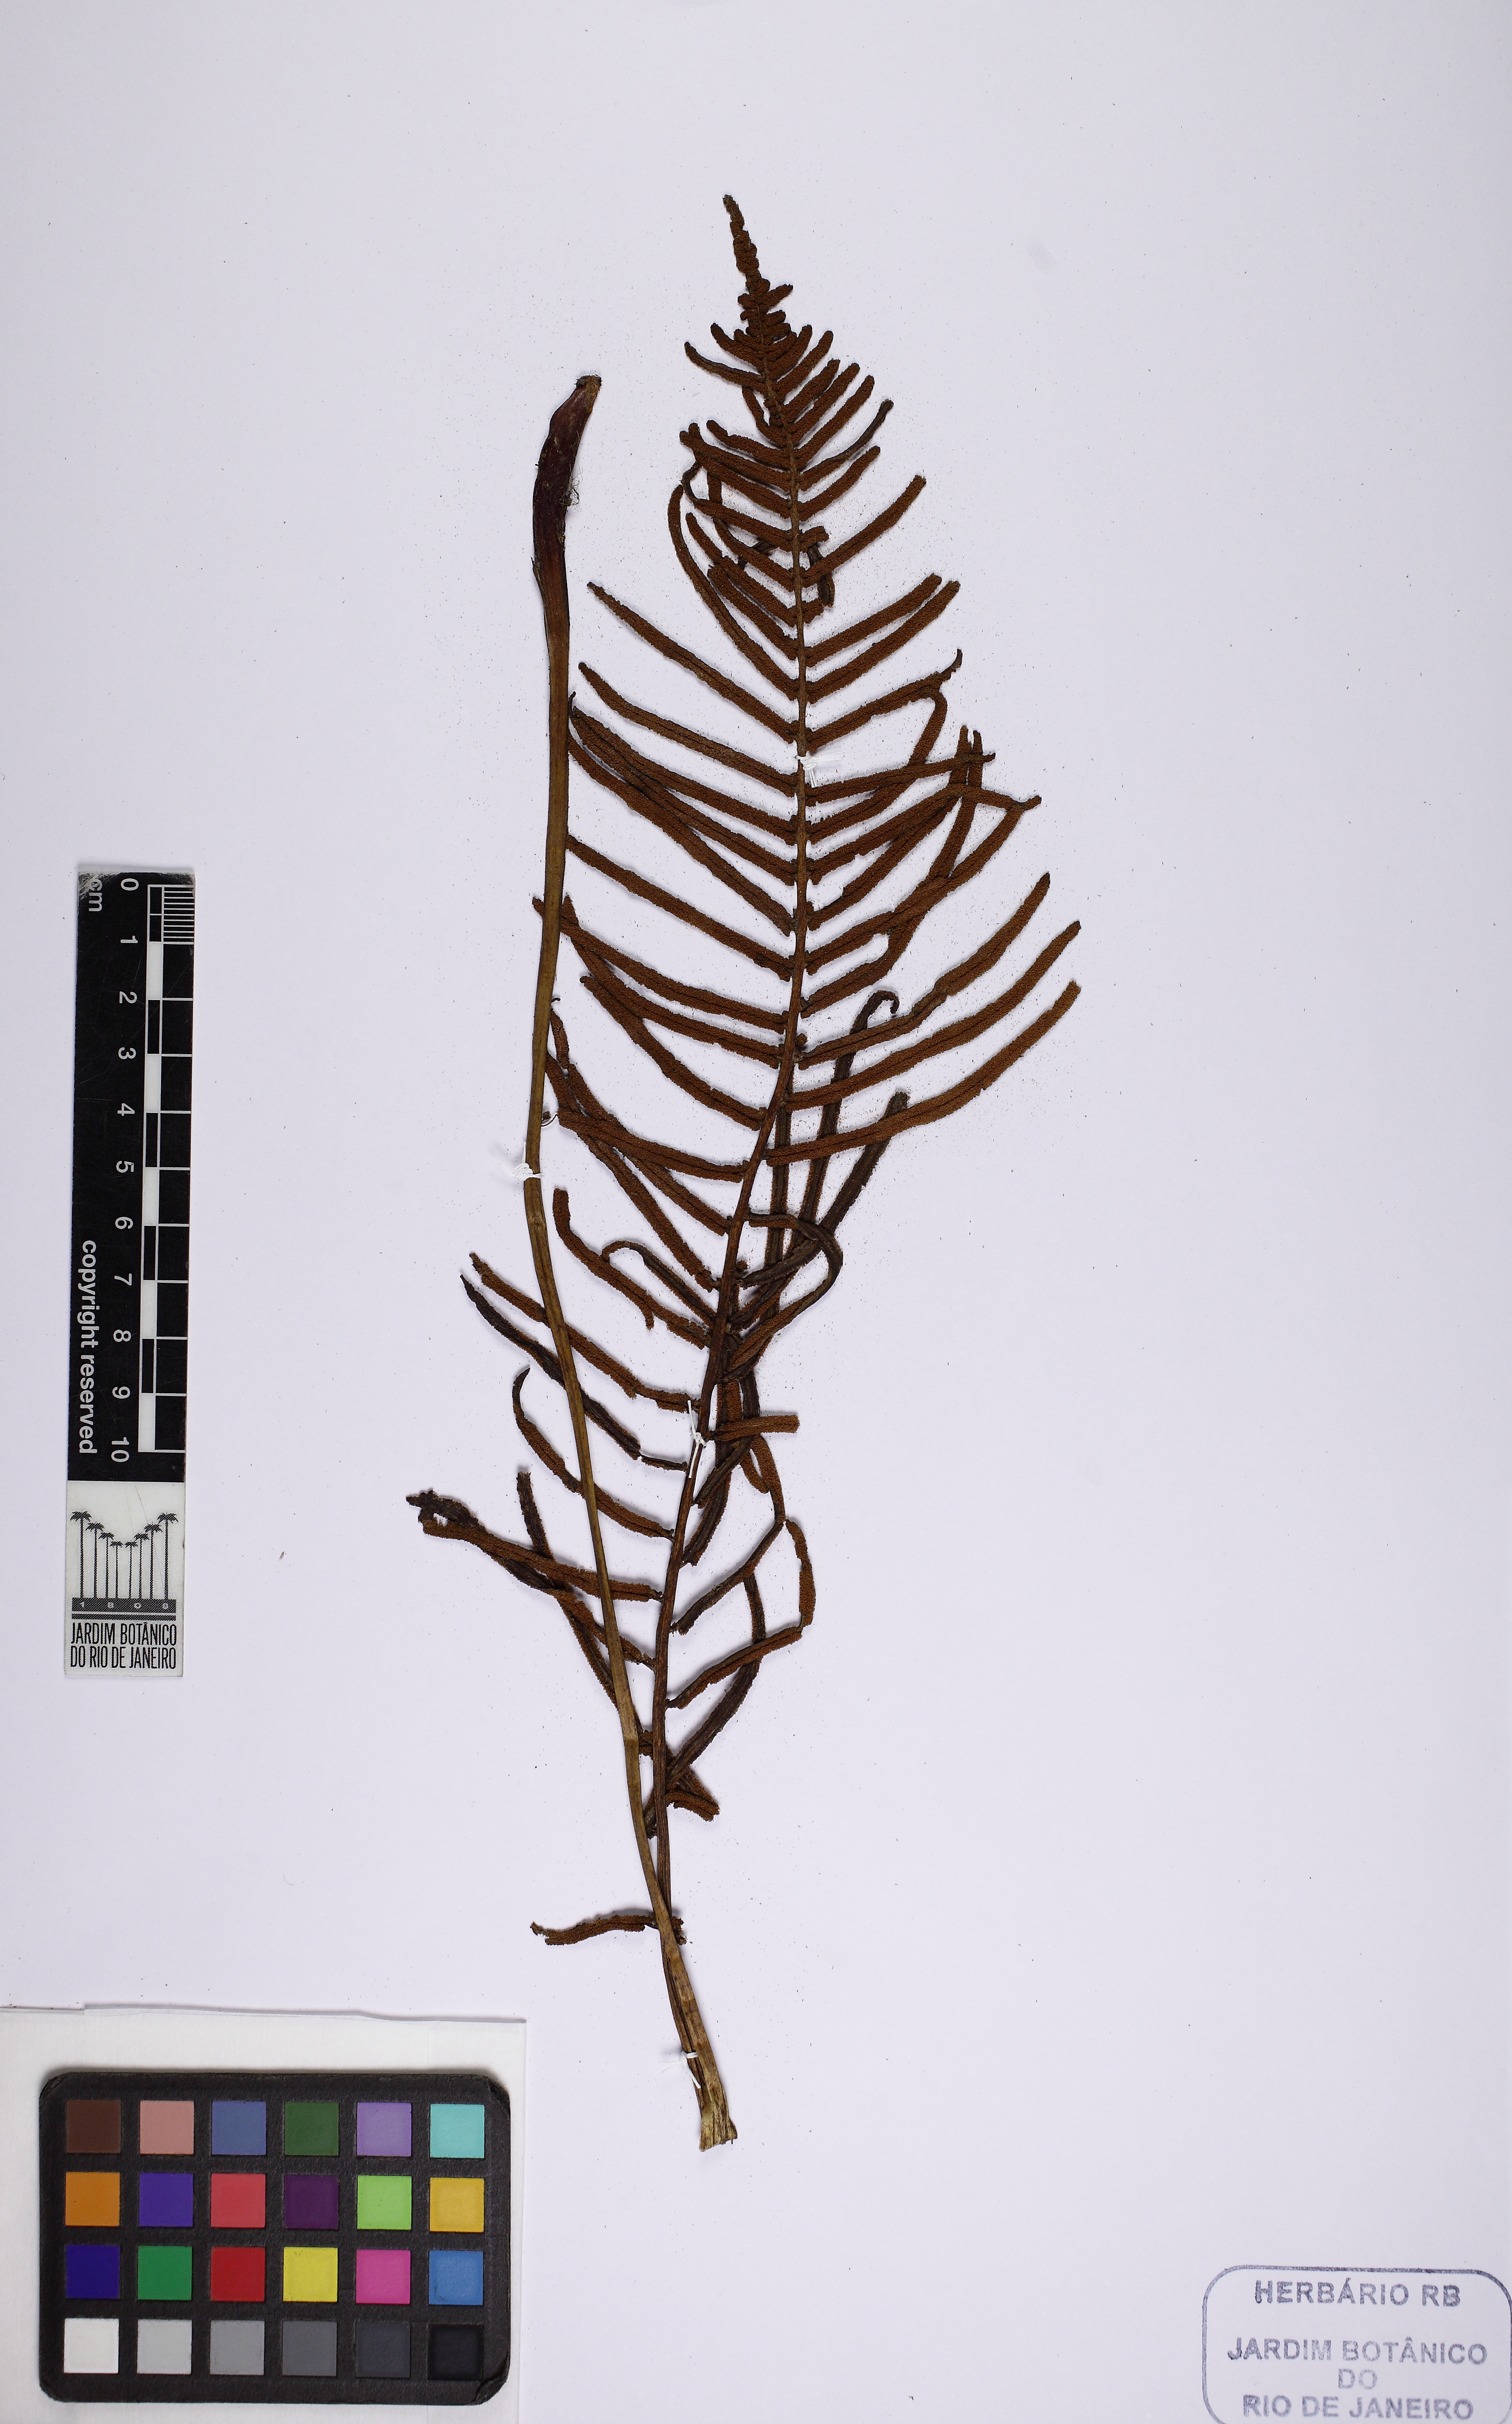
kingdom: Plantae
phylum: Tracheophyta
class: Polypodiopsida
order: Cyatheales
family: Plagiogyriaceae
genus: Plagiogyria
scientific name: Plagiogyria pectinata
